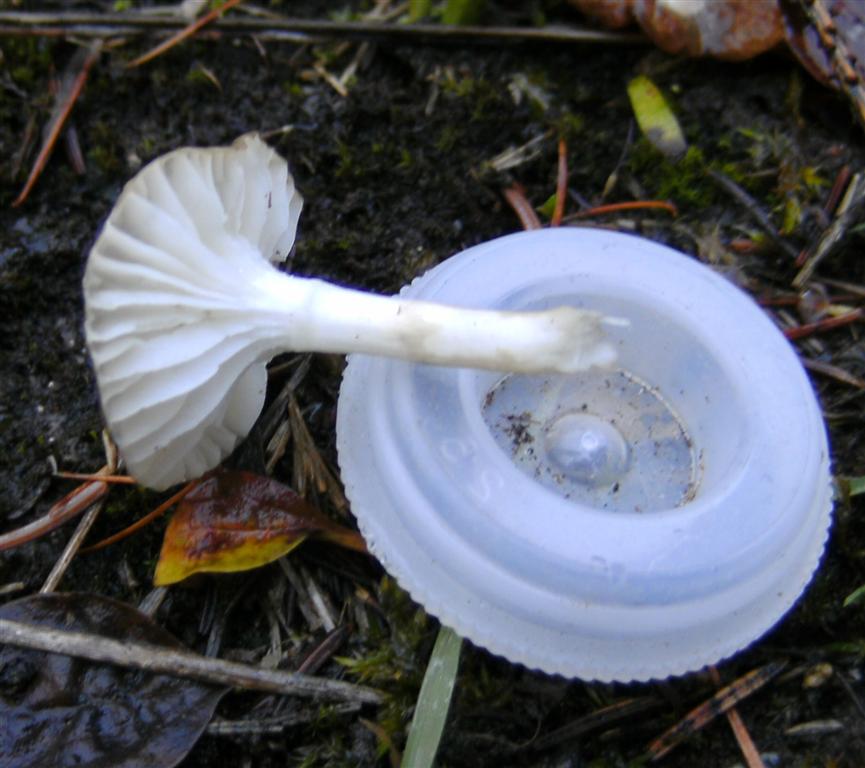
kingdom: Fungi
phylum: Basidiomycota
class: Agaricomycetes
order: Agaricales
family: Hygrophoraceae
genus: Hygrophorus
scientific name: Hygrophorus olivaceoalbus
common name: hvidbrun sneglehat
